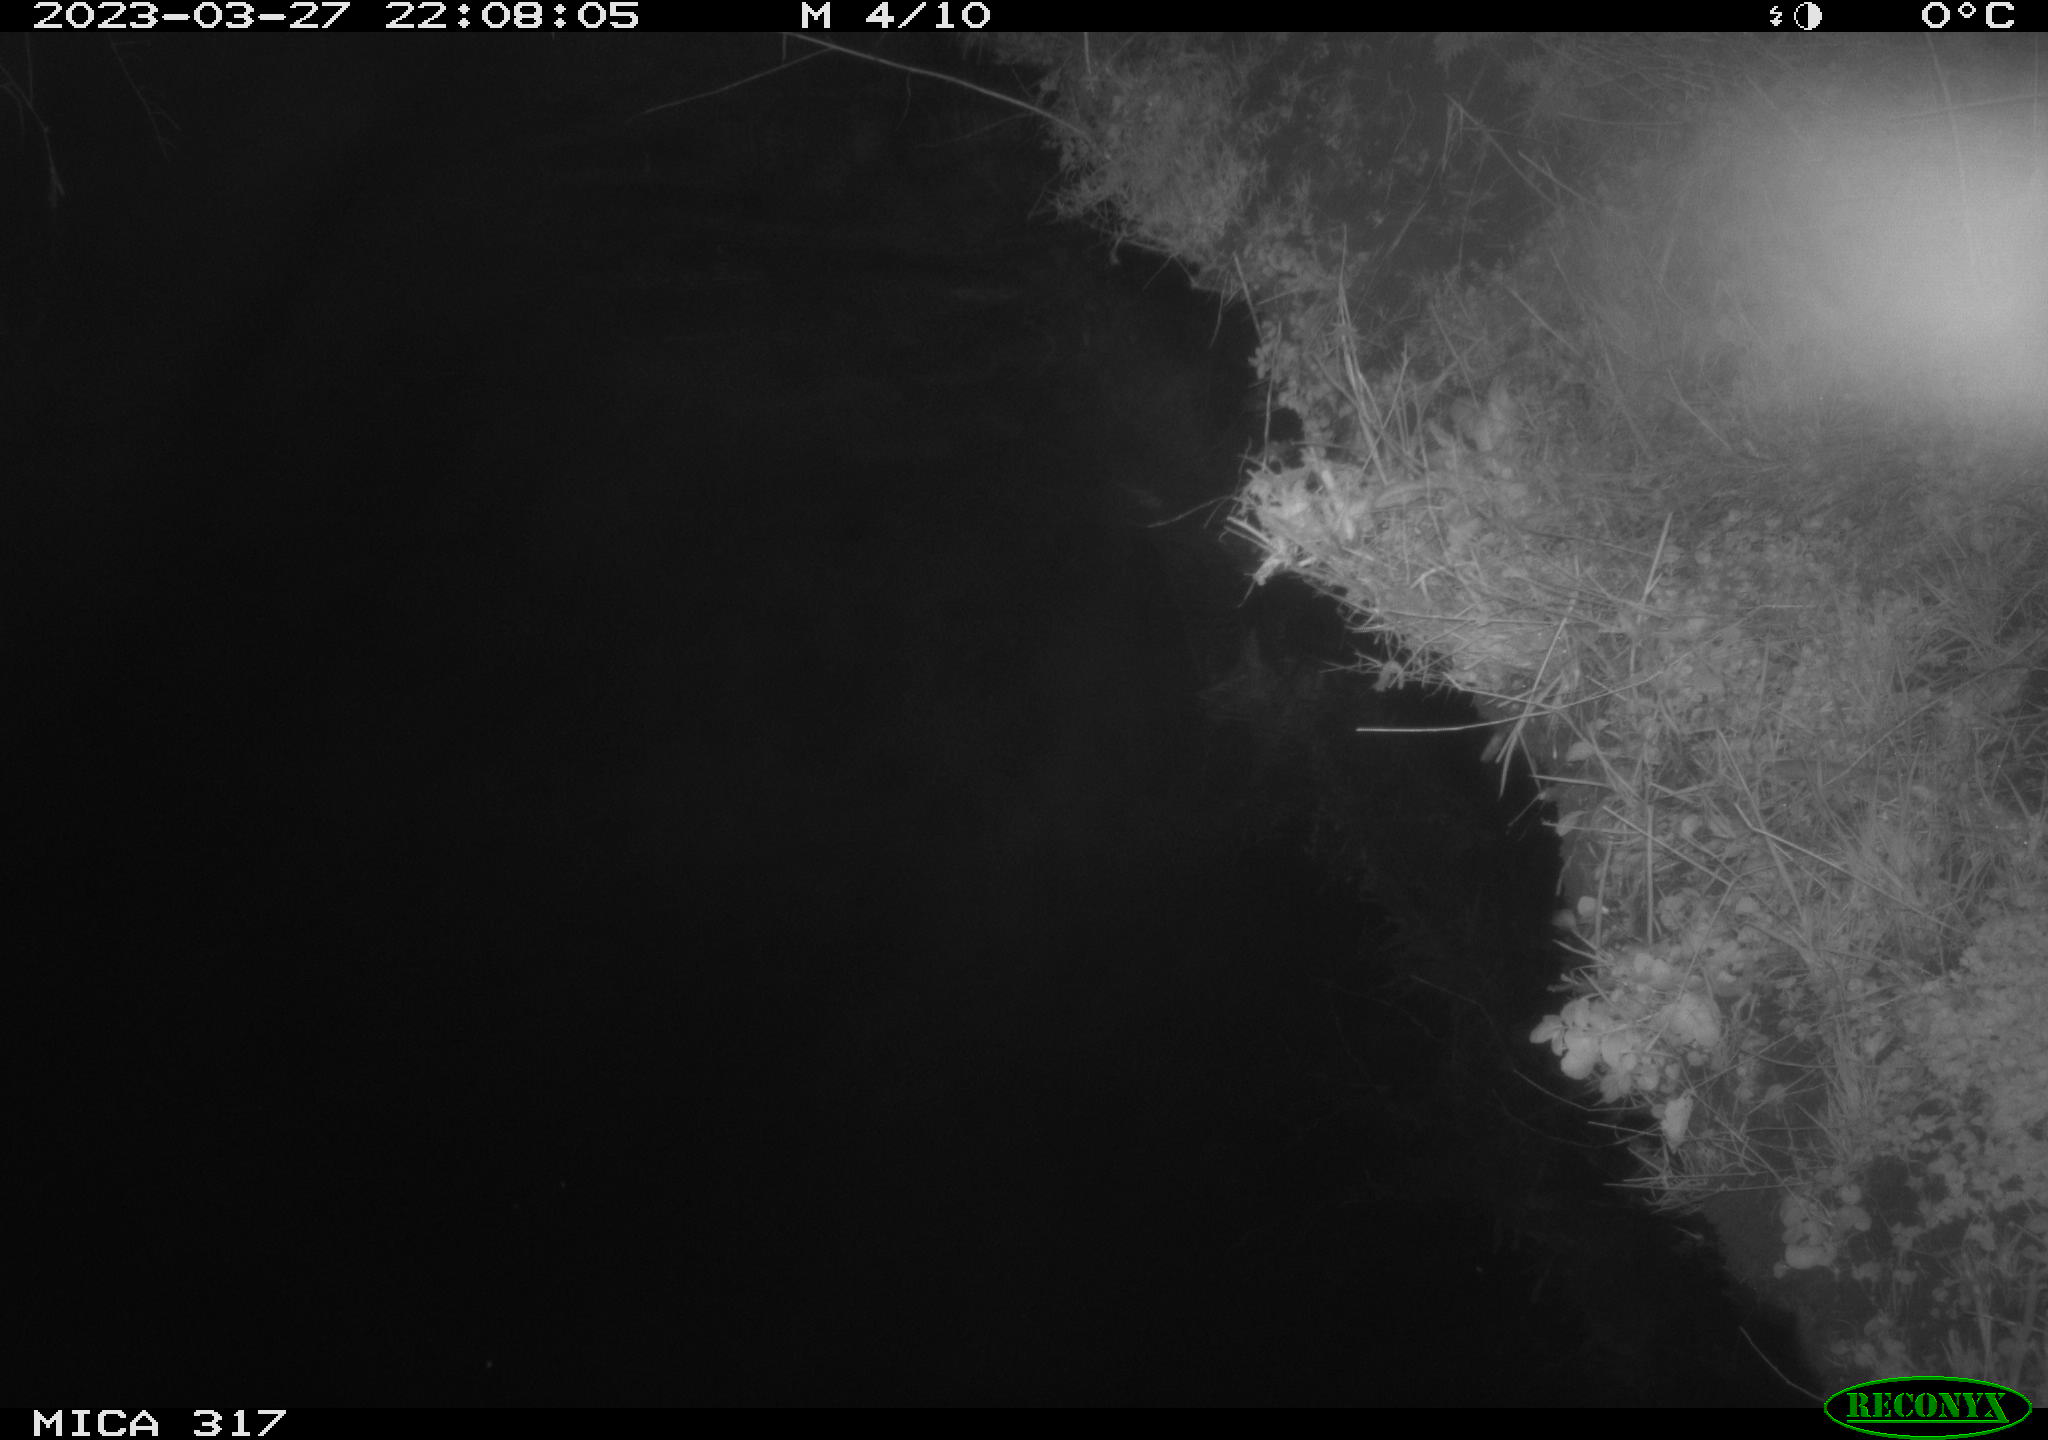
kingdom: Animalia
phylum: Chordata
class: Aves
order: Anseriformes
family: Anatidae
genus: Anas
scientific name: Anas
